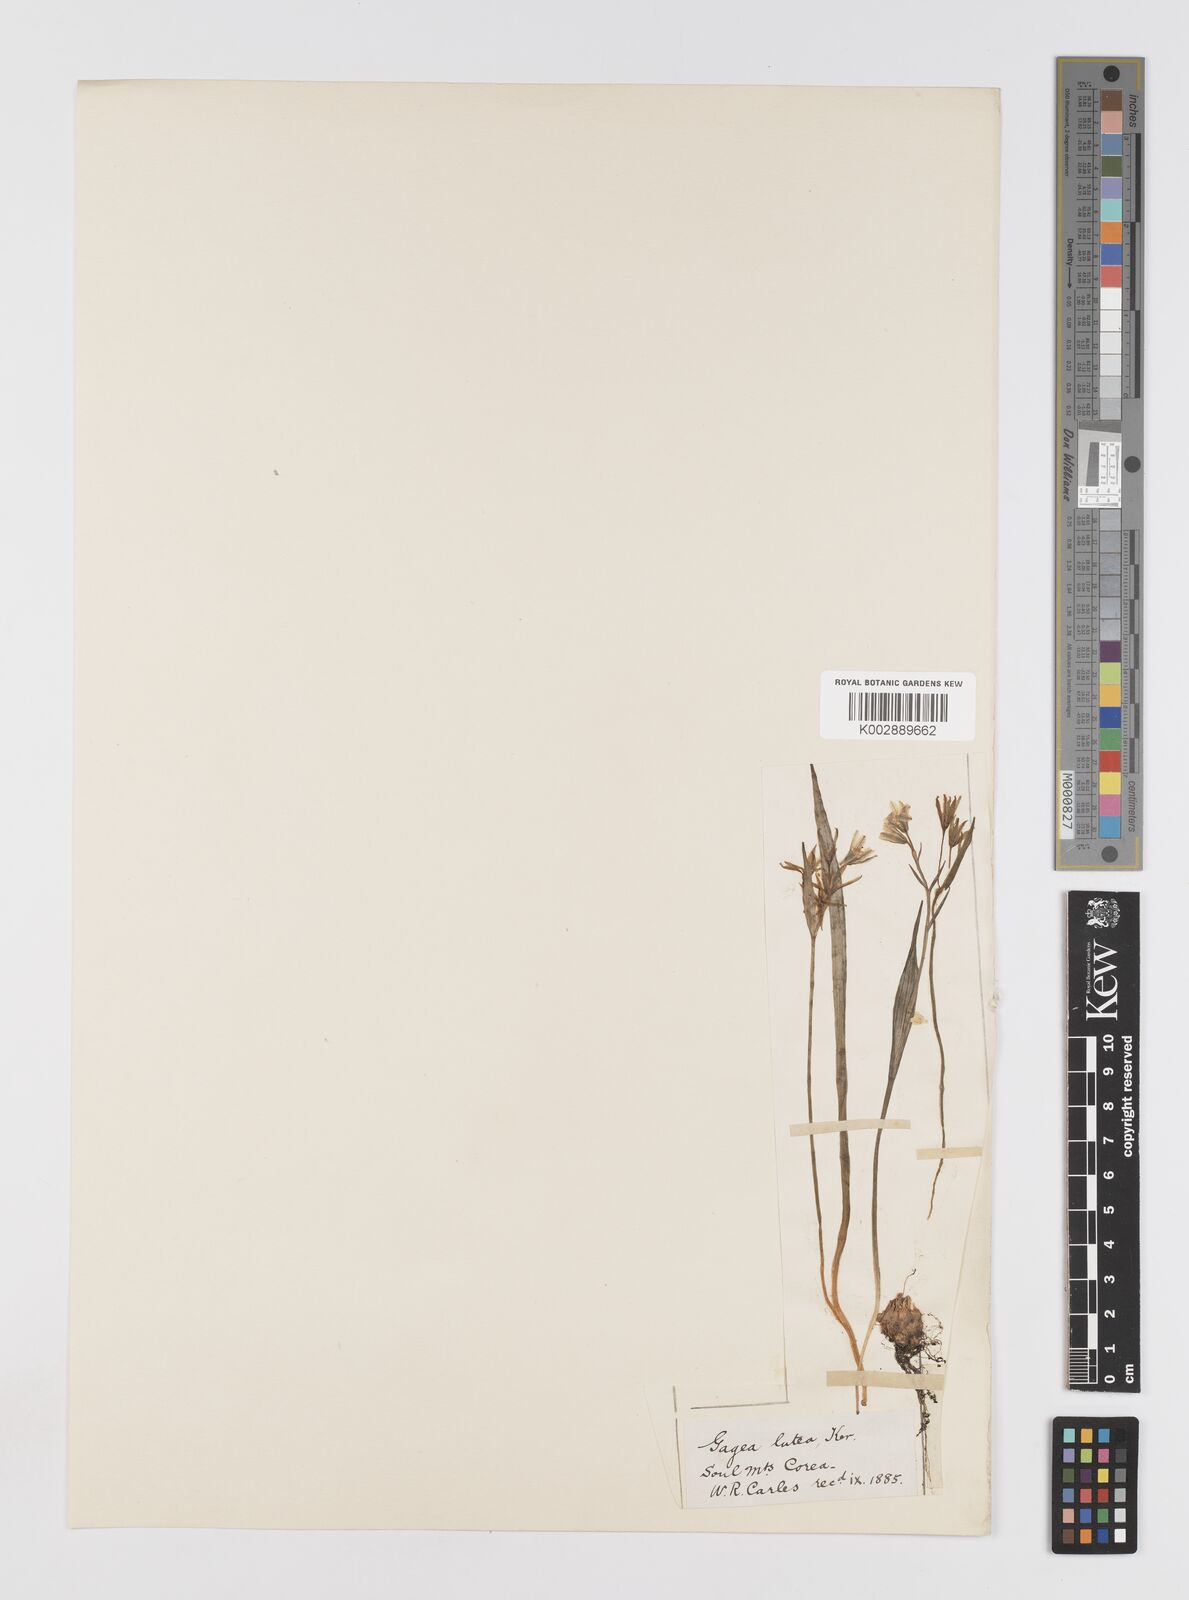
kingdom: Plantae
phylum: Tracheophyta
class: Liliopsida
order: Liliales
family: Liliaceae
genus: Gagea
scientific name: Gagea lutea
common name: Yellow star-of-bethlehem
